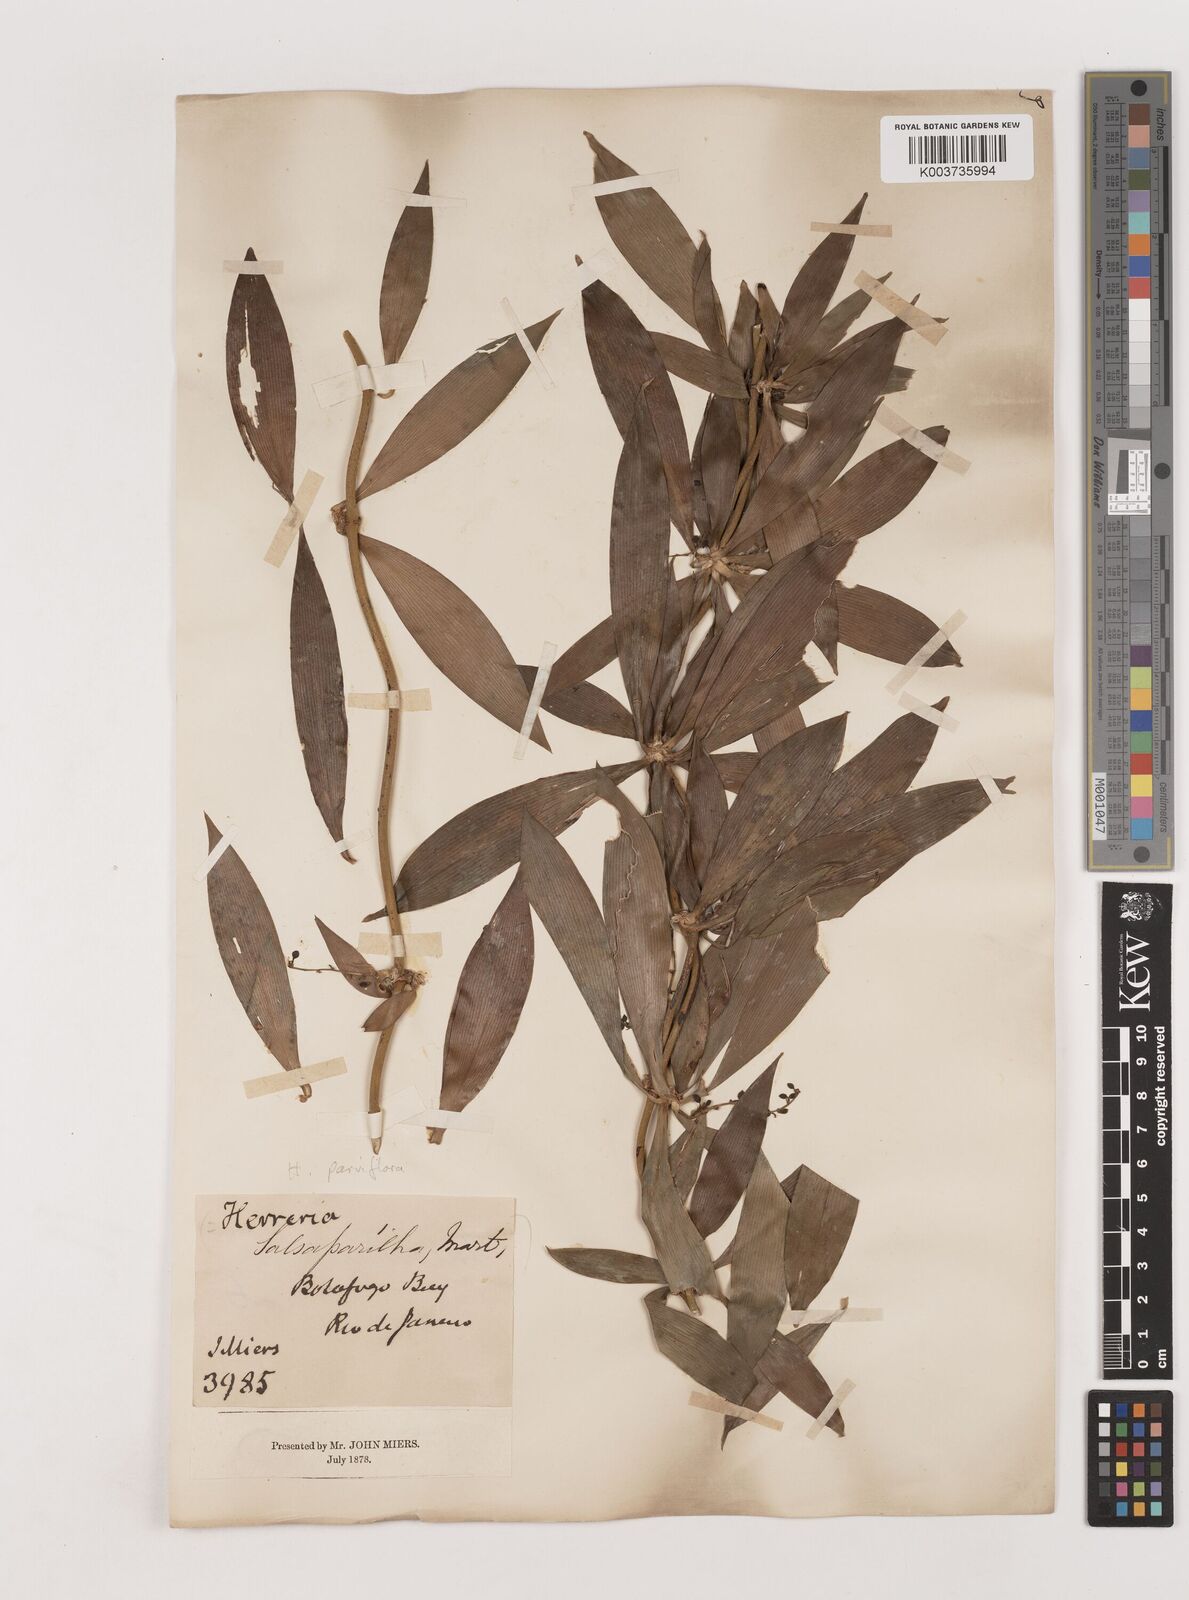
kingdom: Plantae
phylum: Tracheophyta
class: Liliopsida
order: Asparagales
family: Asparagaceae
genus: Herreria
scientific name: Herreria salsaparilha
